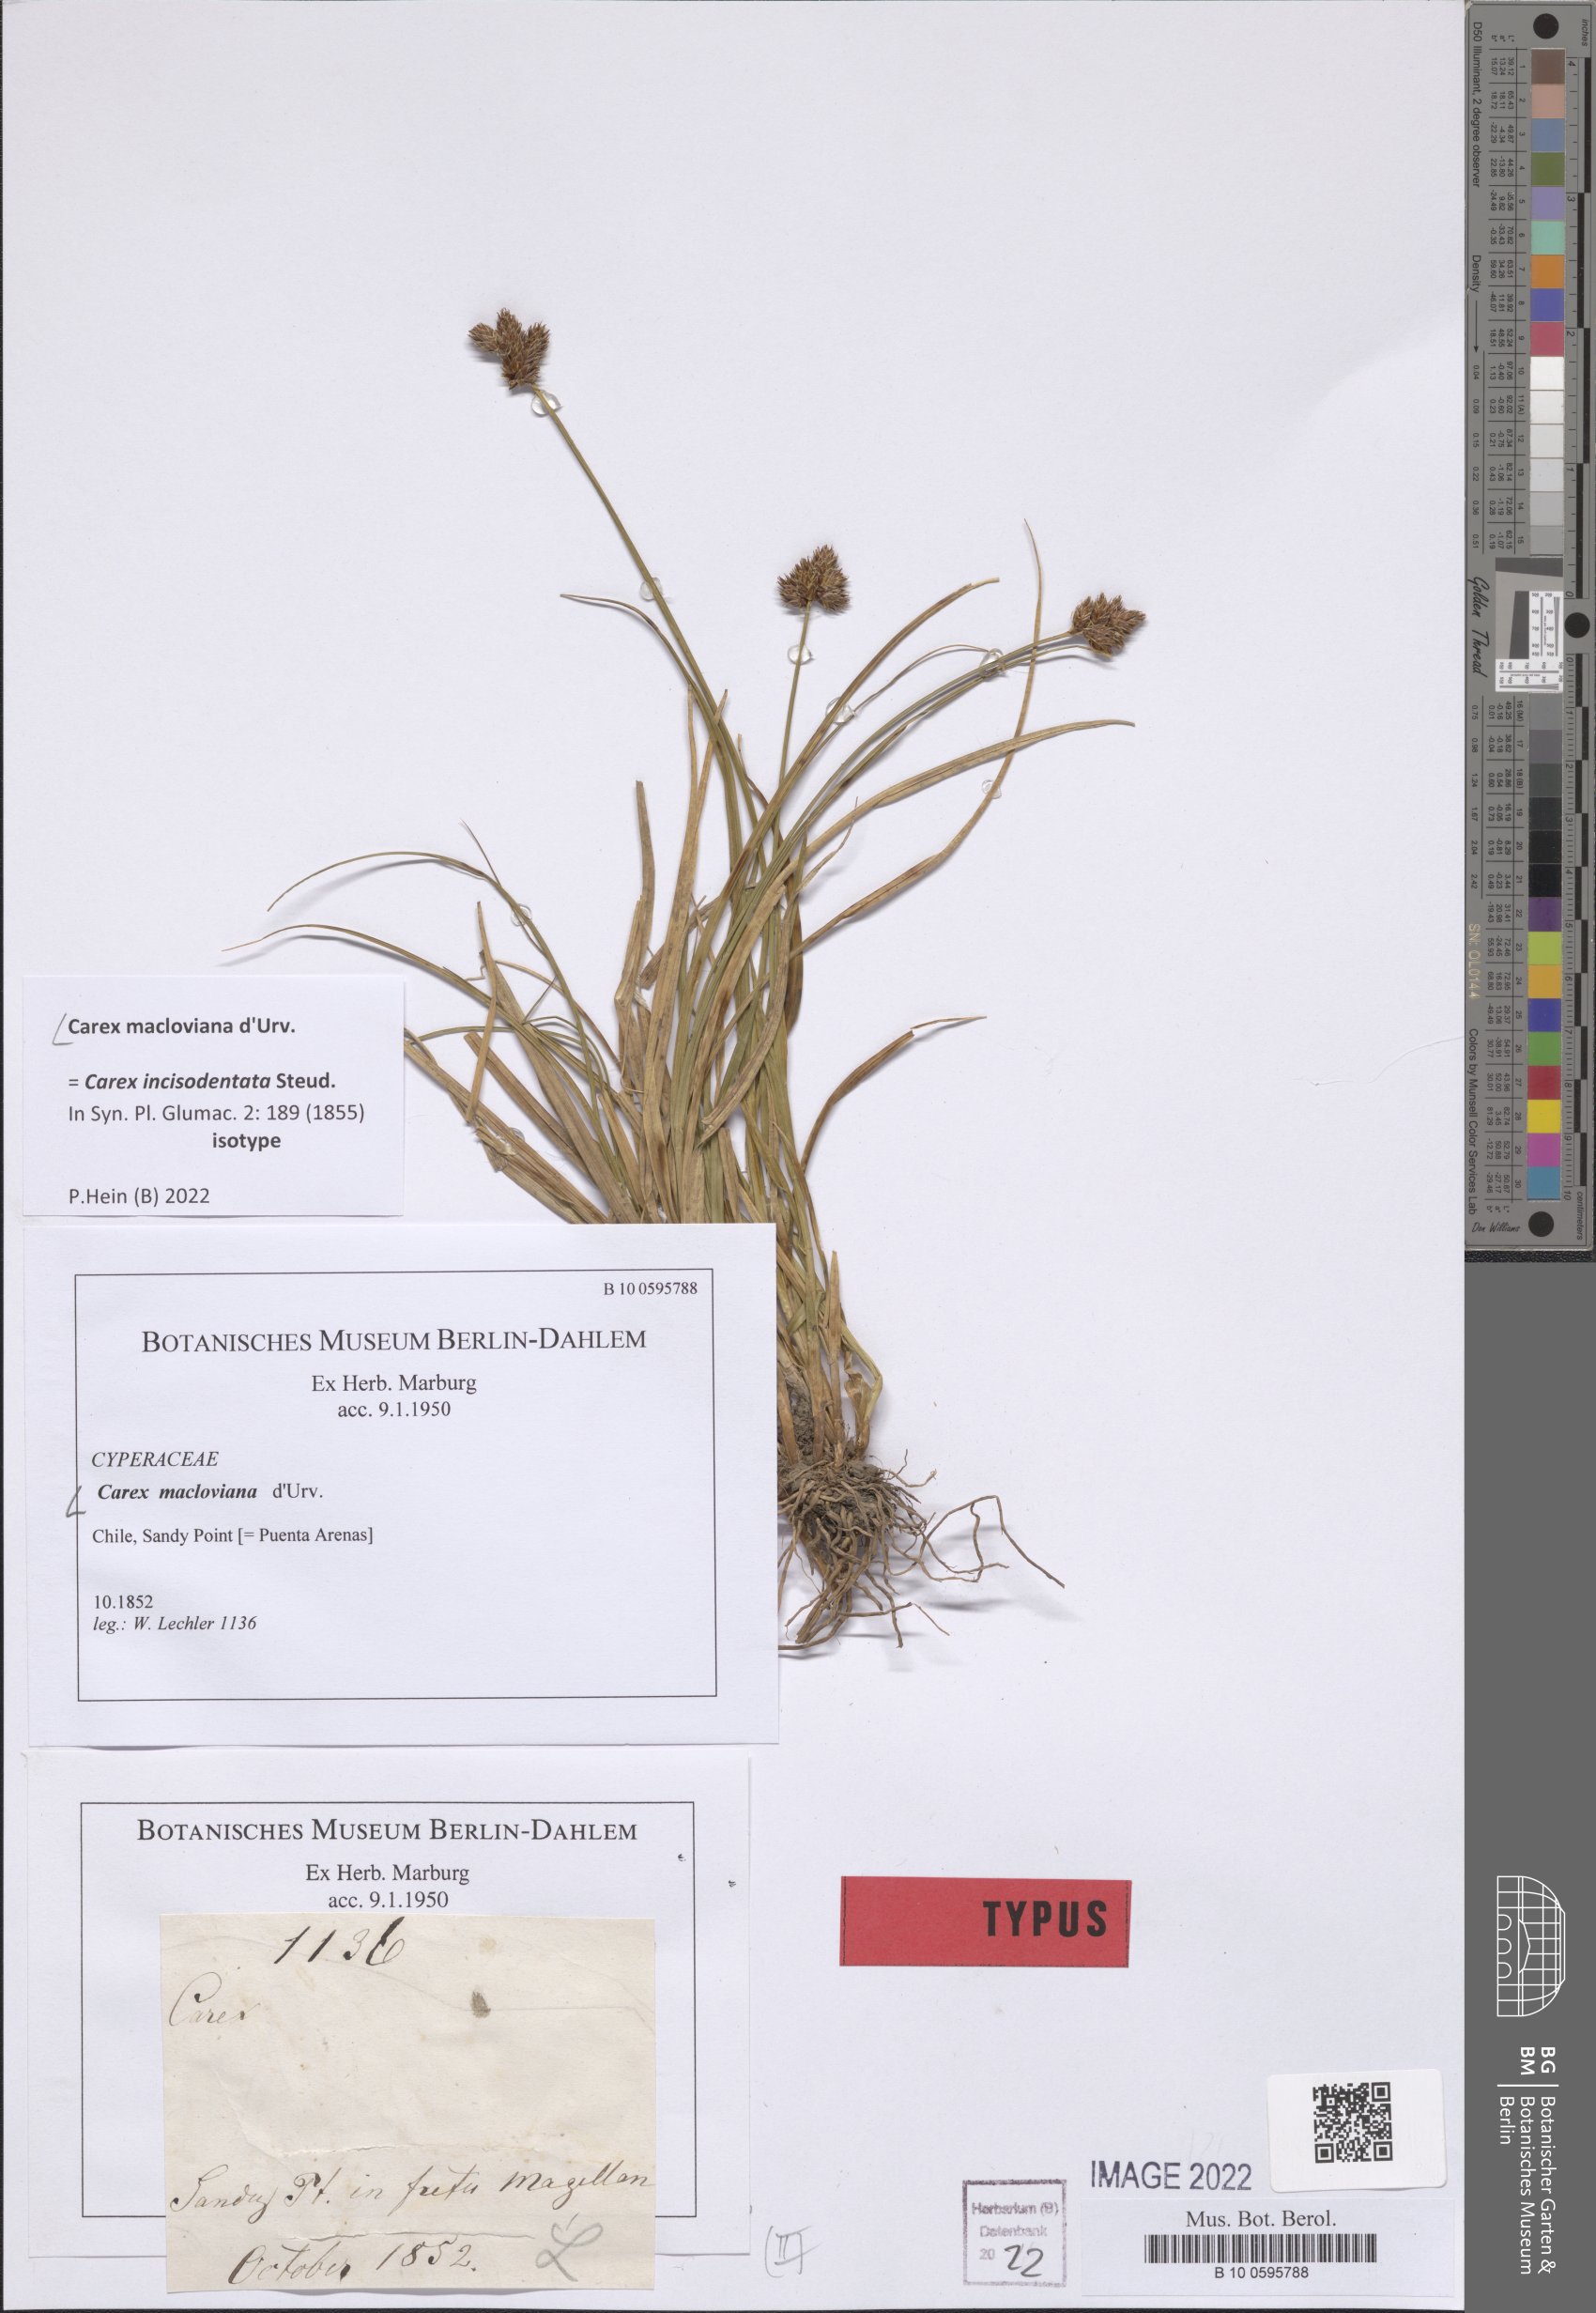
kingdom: Plantae
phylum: Tracheophyta
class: Liliopsida
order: Poales
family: Cyperaceae
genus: Carex
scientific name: Carex macloviana
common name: Falkland island sedge
